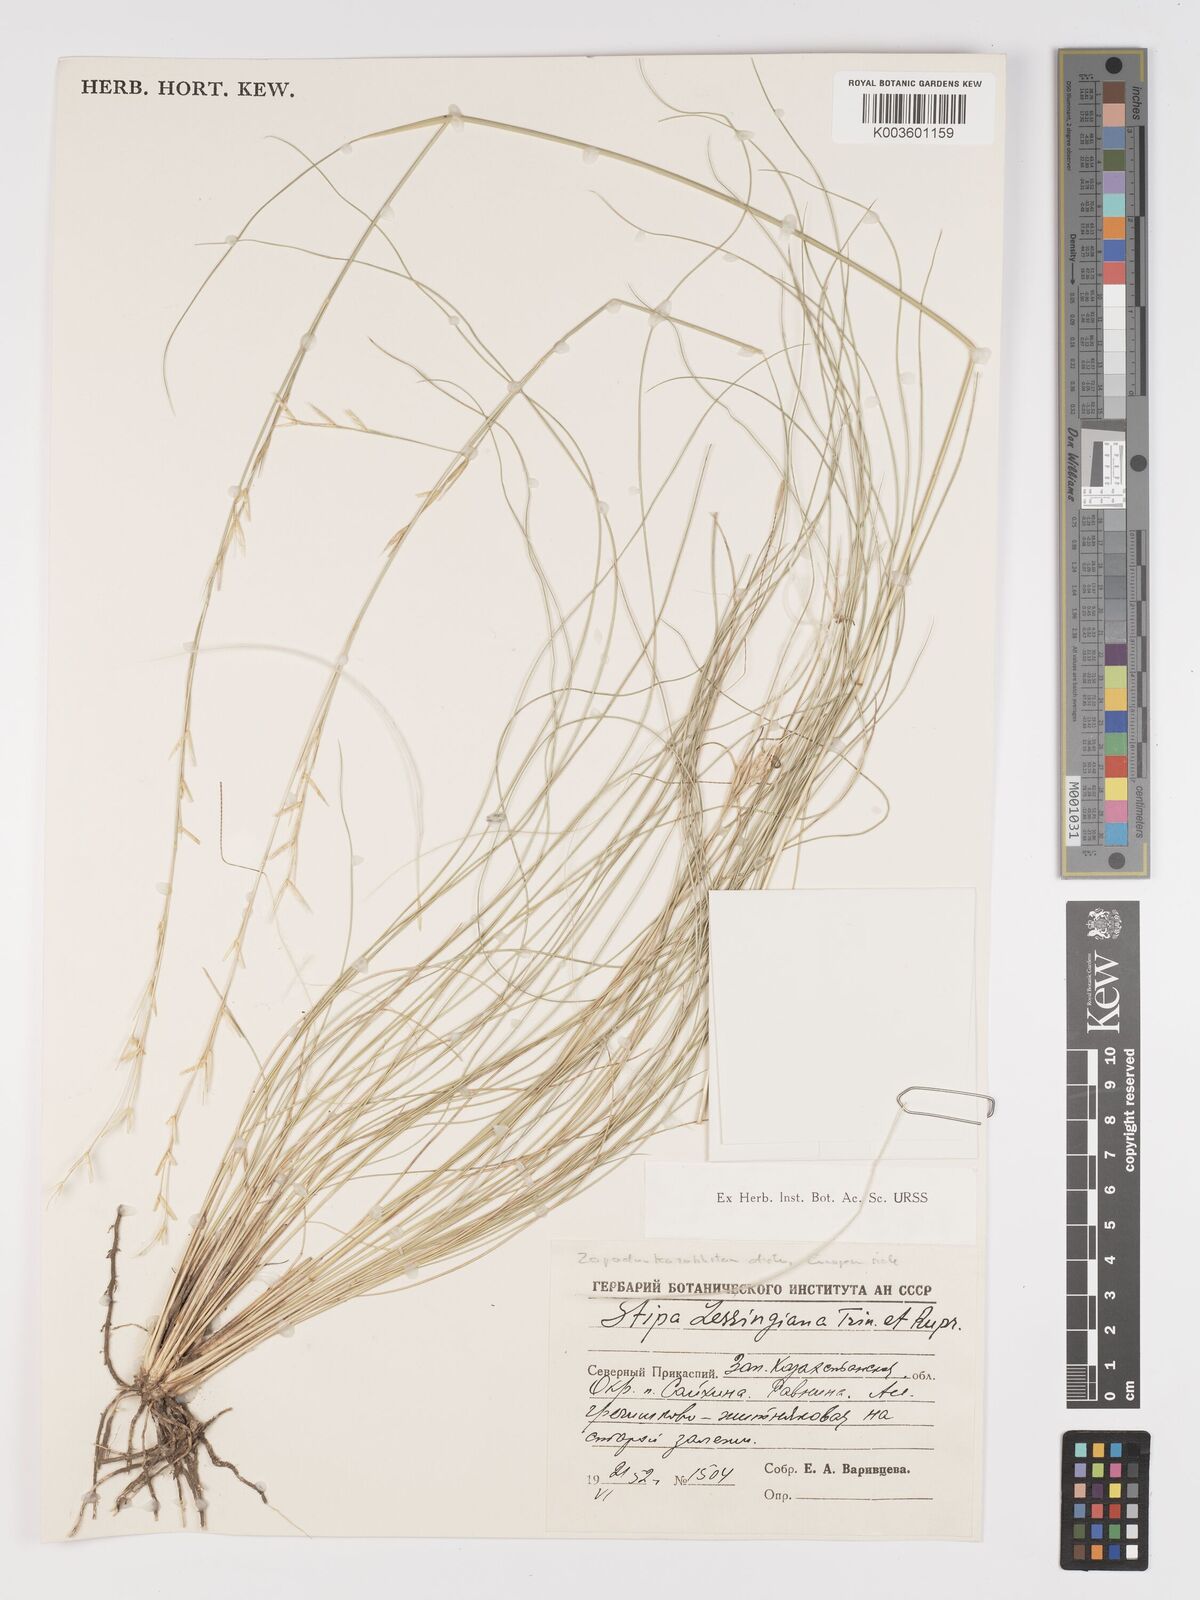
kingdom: Plantae
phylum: Tracheophyta
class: Liliopsida
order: Poales
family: Poaceae
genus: Stipa
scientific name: Stipa lessingiana
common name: Needle grass
